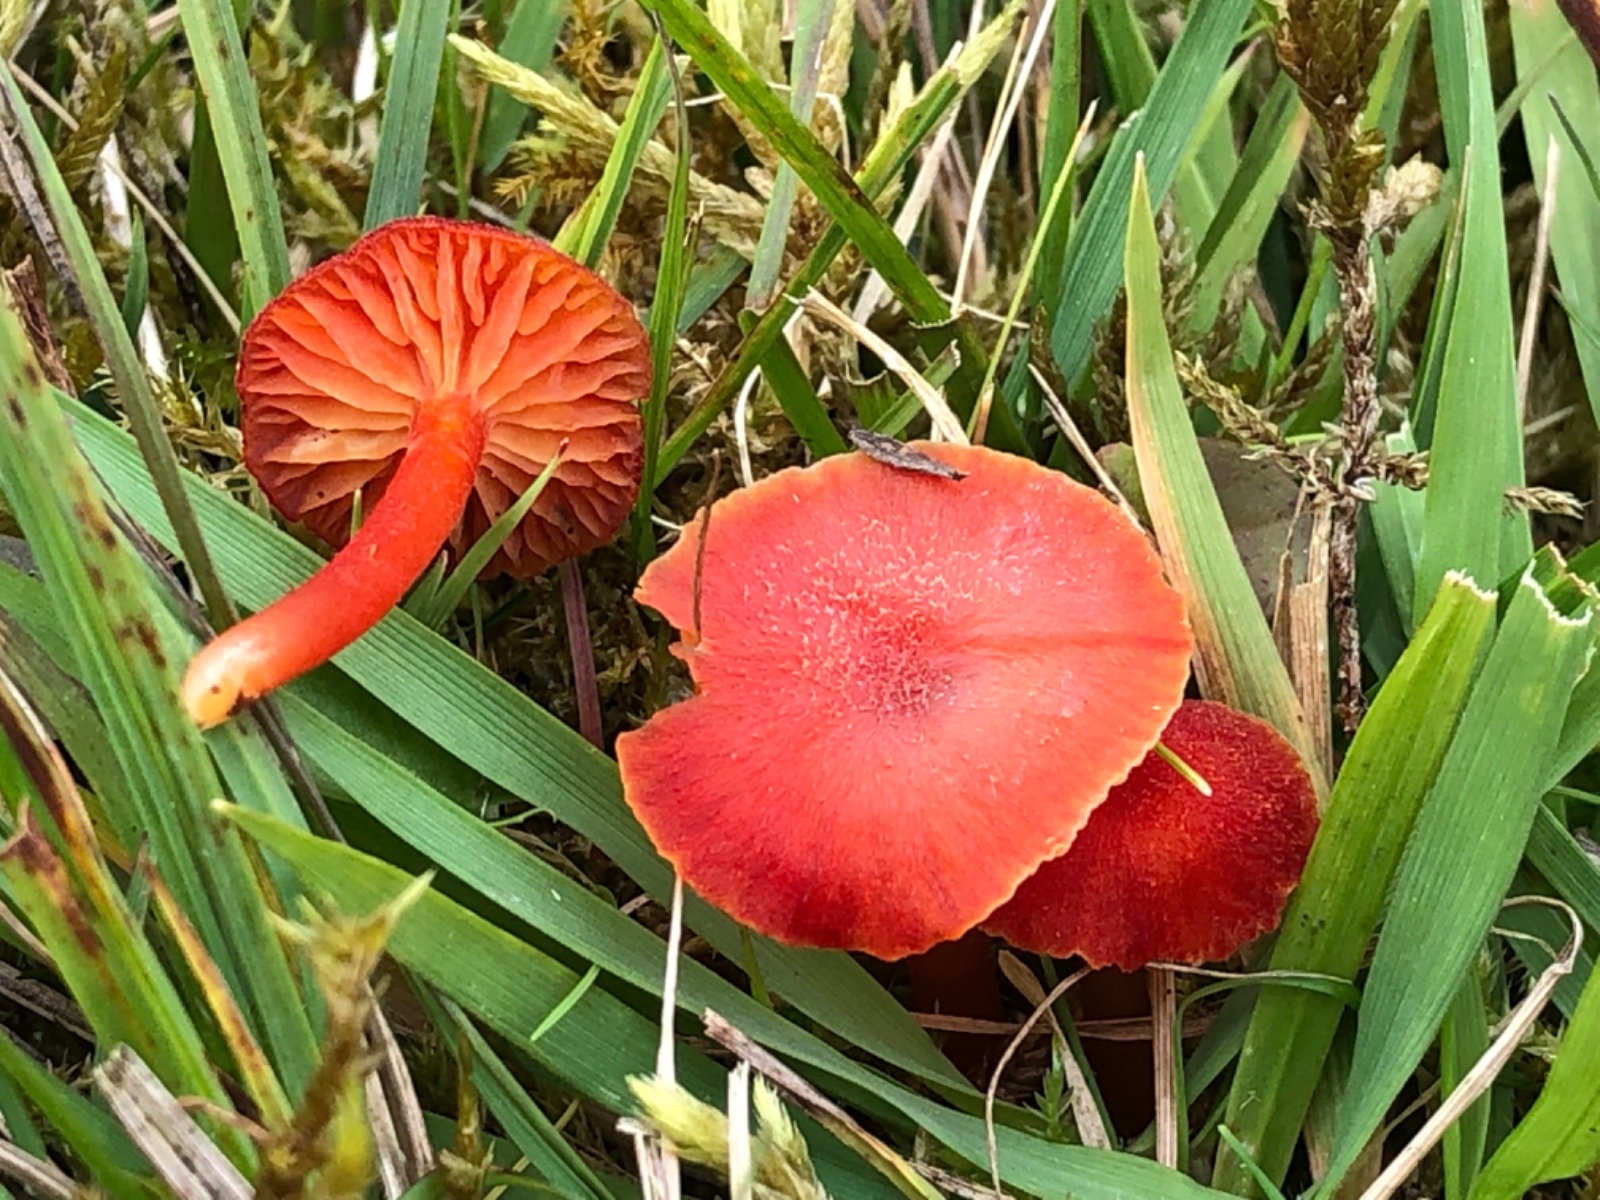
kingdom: Fungi
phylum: Basidiomycota
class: Agaricomycetes
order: Agaricales
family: Hygrophoraceae
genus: Hygrocybe
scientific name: Hygrocybe helobia
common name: hvidløgs-vokshat
